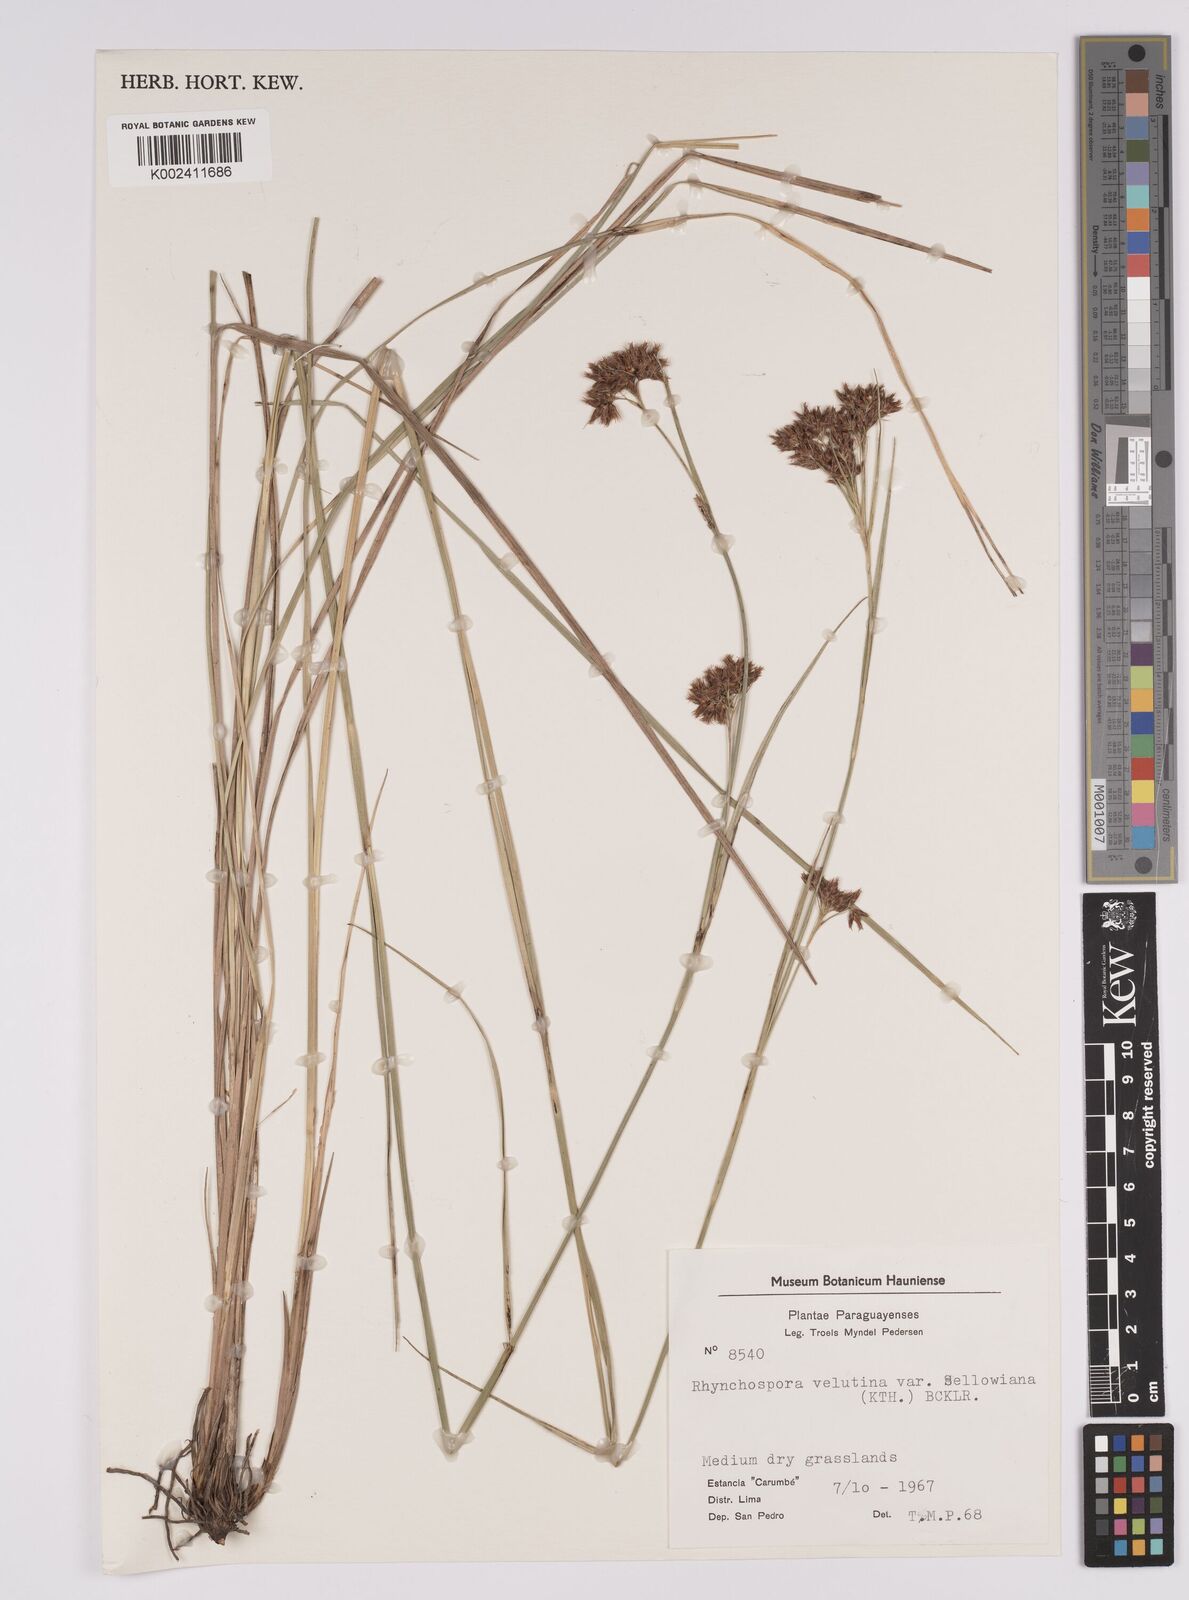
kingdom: Plantae
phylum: Tracheophyta
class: Liliopsida
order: Poales
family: Cyperaceae
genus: Rhynchospora
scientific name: Rhynchospora velutina
